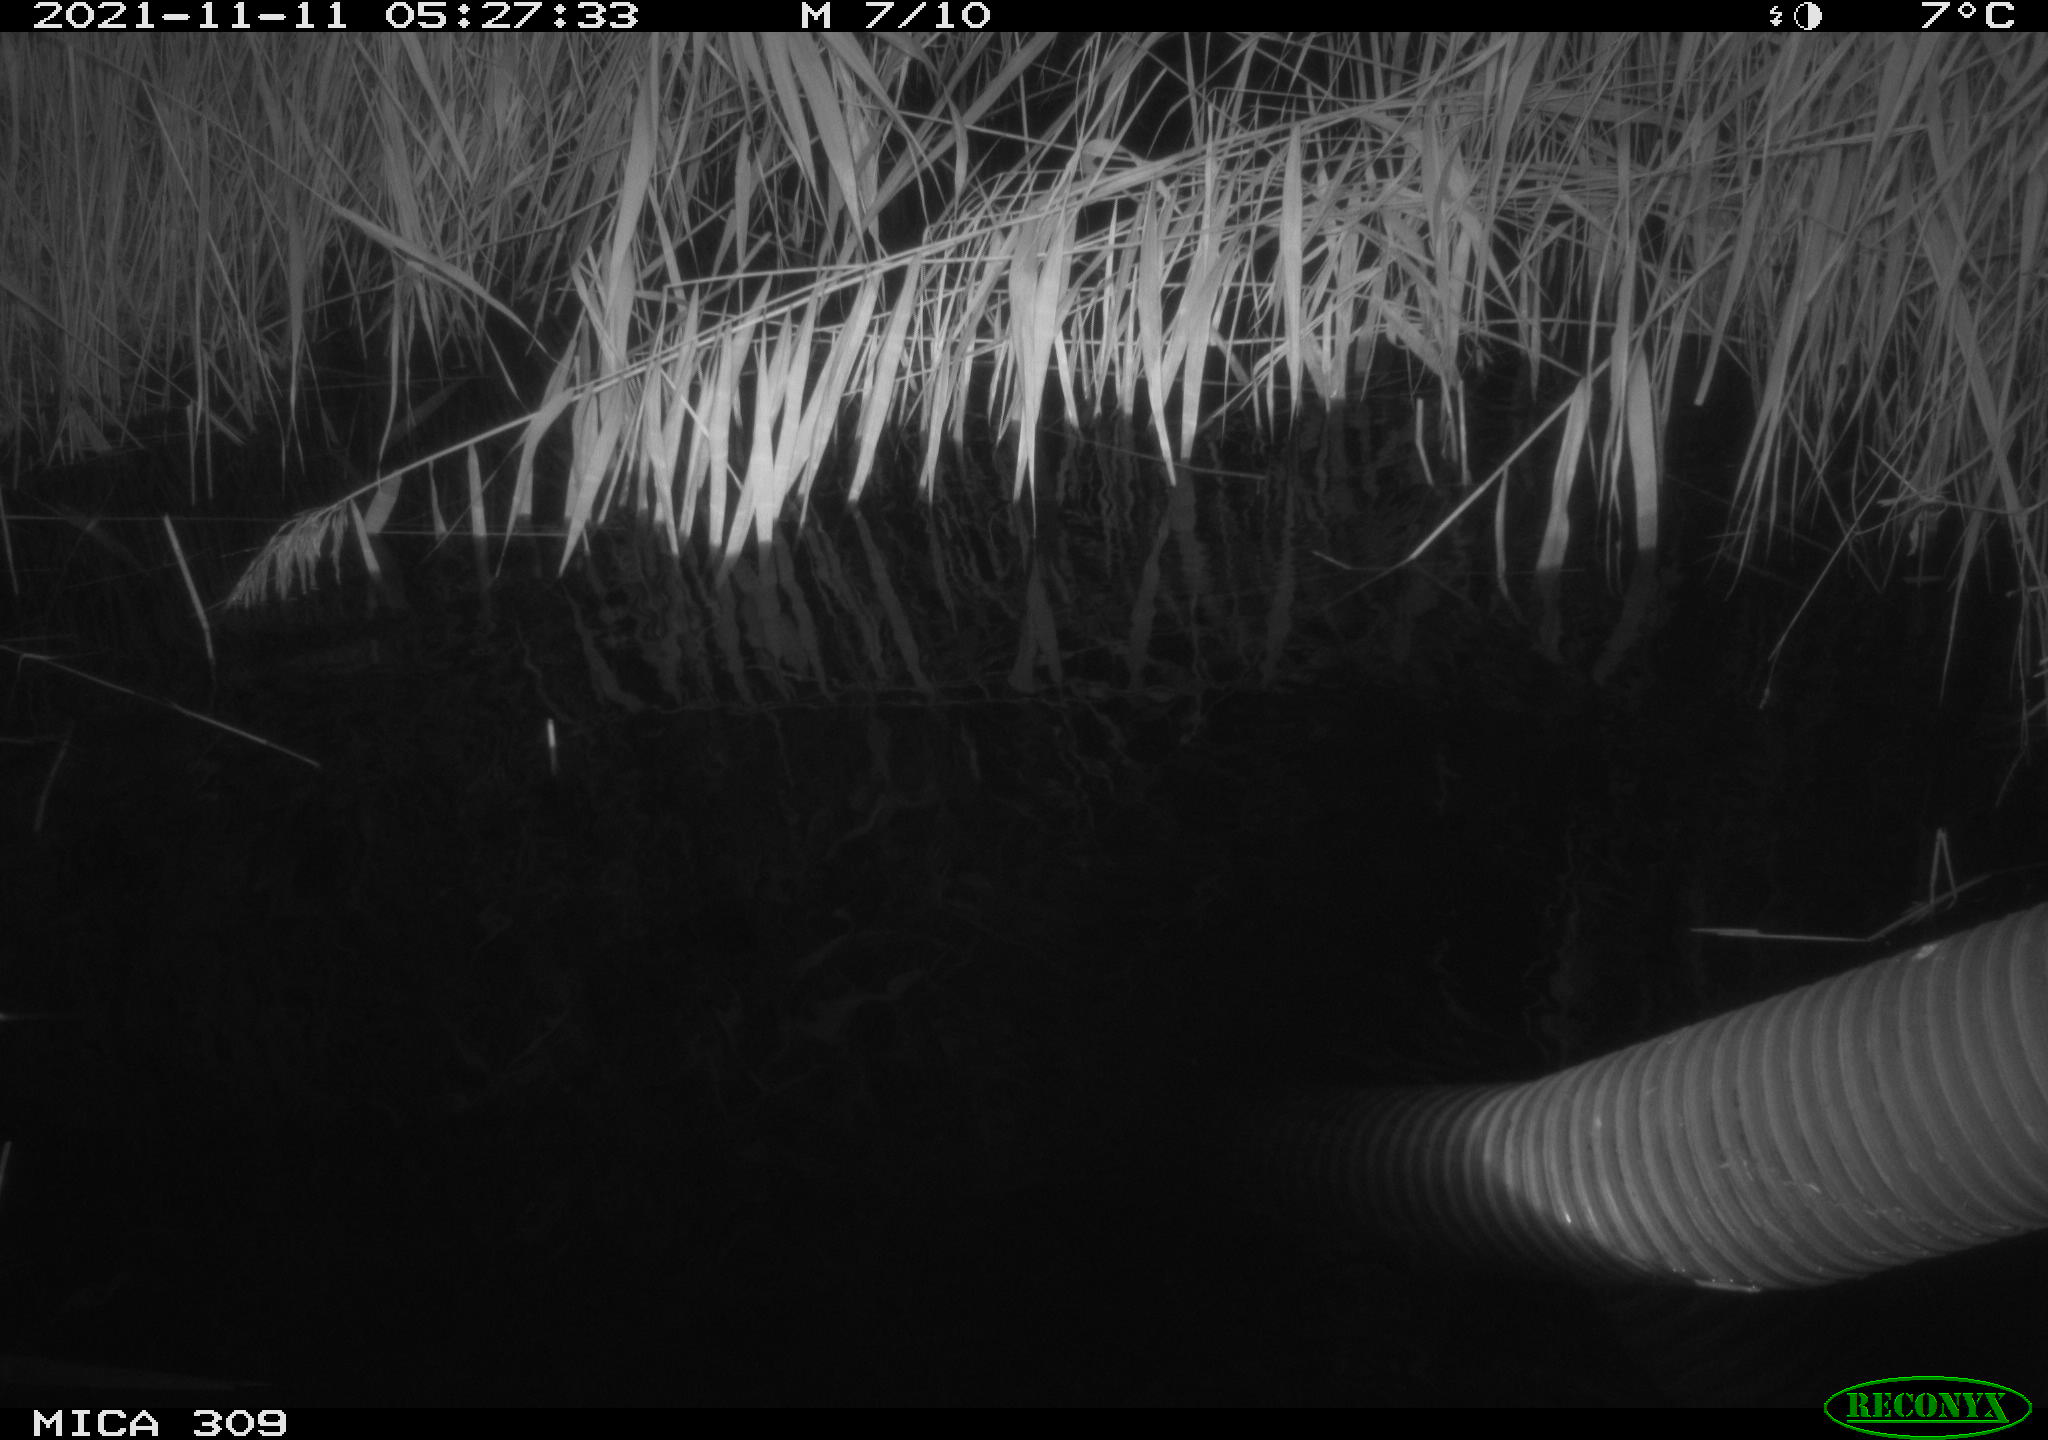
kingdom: Animalia
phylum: Chordata
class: Mammalia
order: Rodentia
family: Muridae
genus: Rattus
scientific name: Rattus norvegicus
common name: Brown rat
